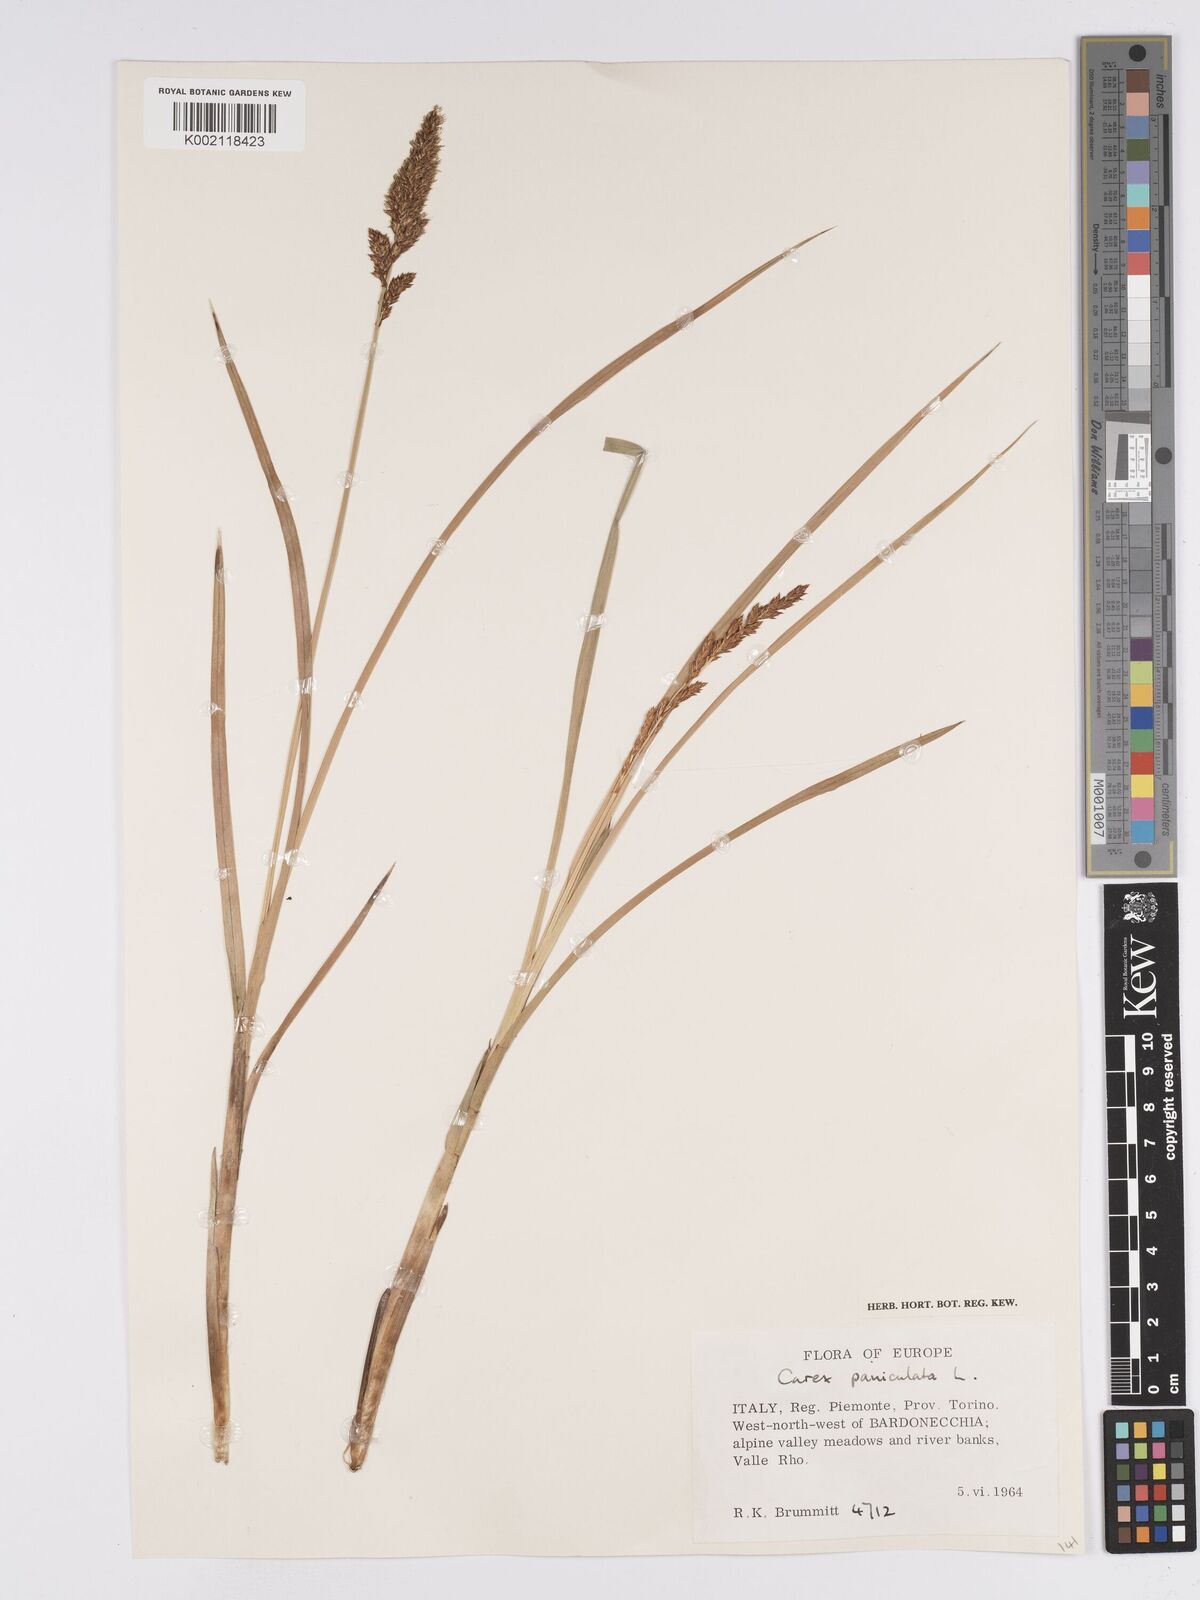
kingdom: Plantae
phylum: Tracheophyta
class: Liliopsida
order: Poales
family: Cyperaceae
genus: Carex
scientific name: Carex paniculata
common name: Greater tussock-sedge
